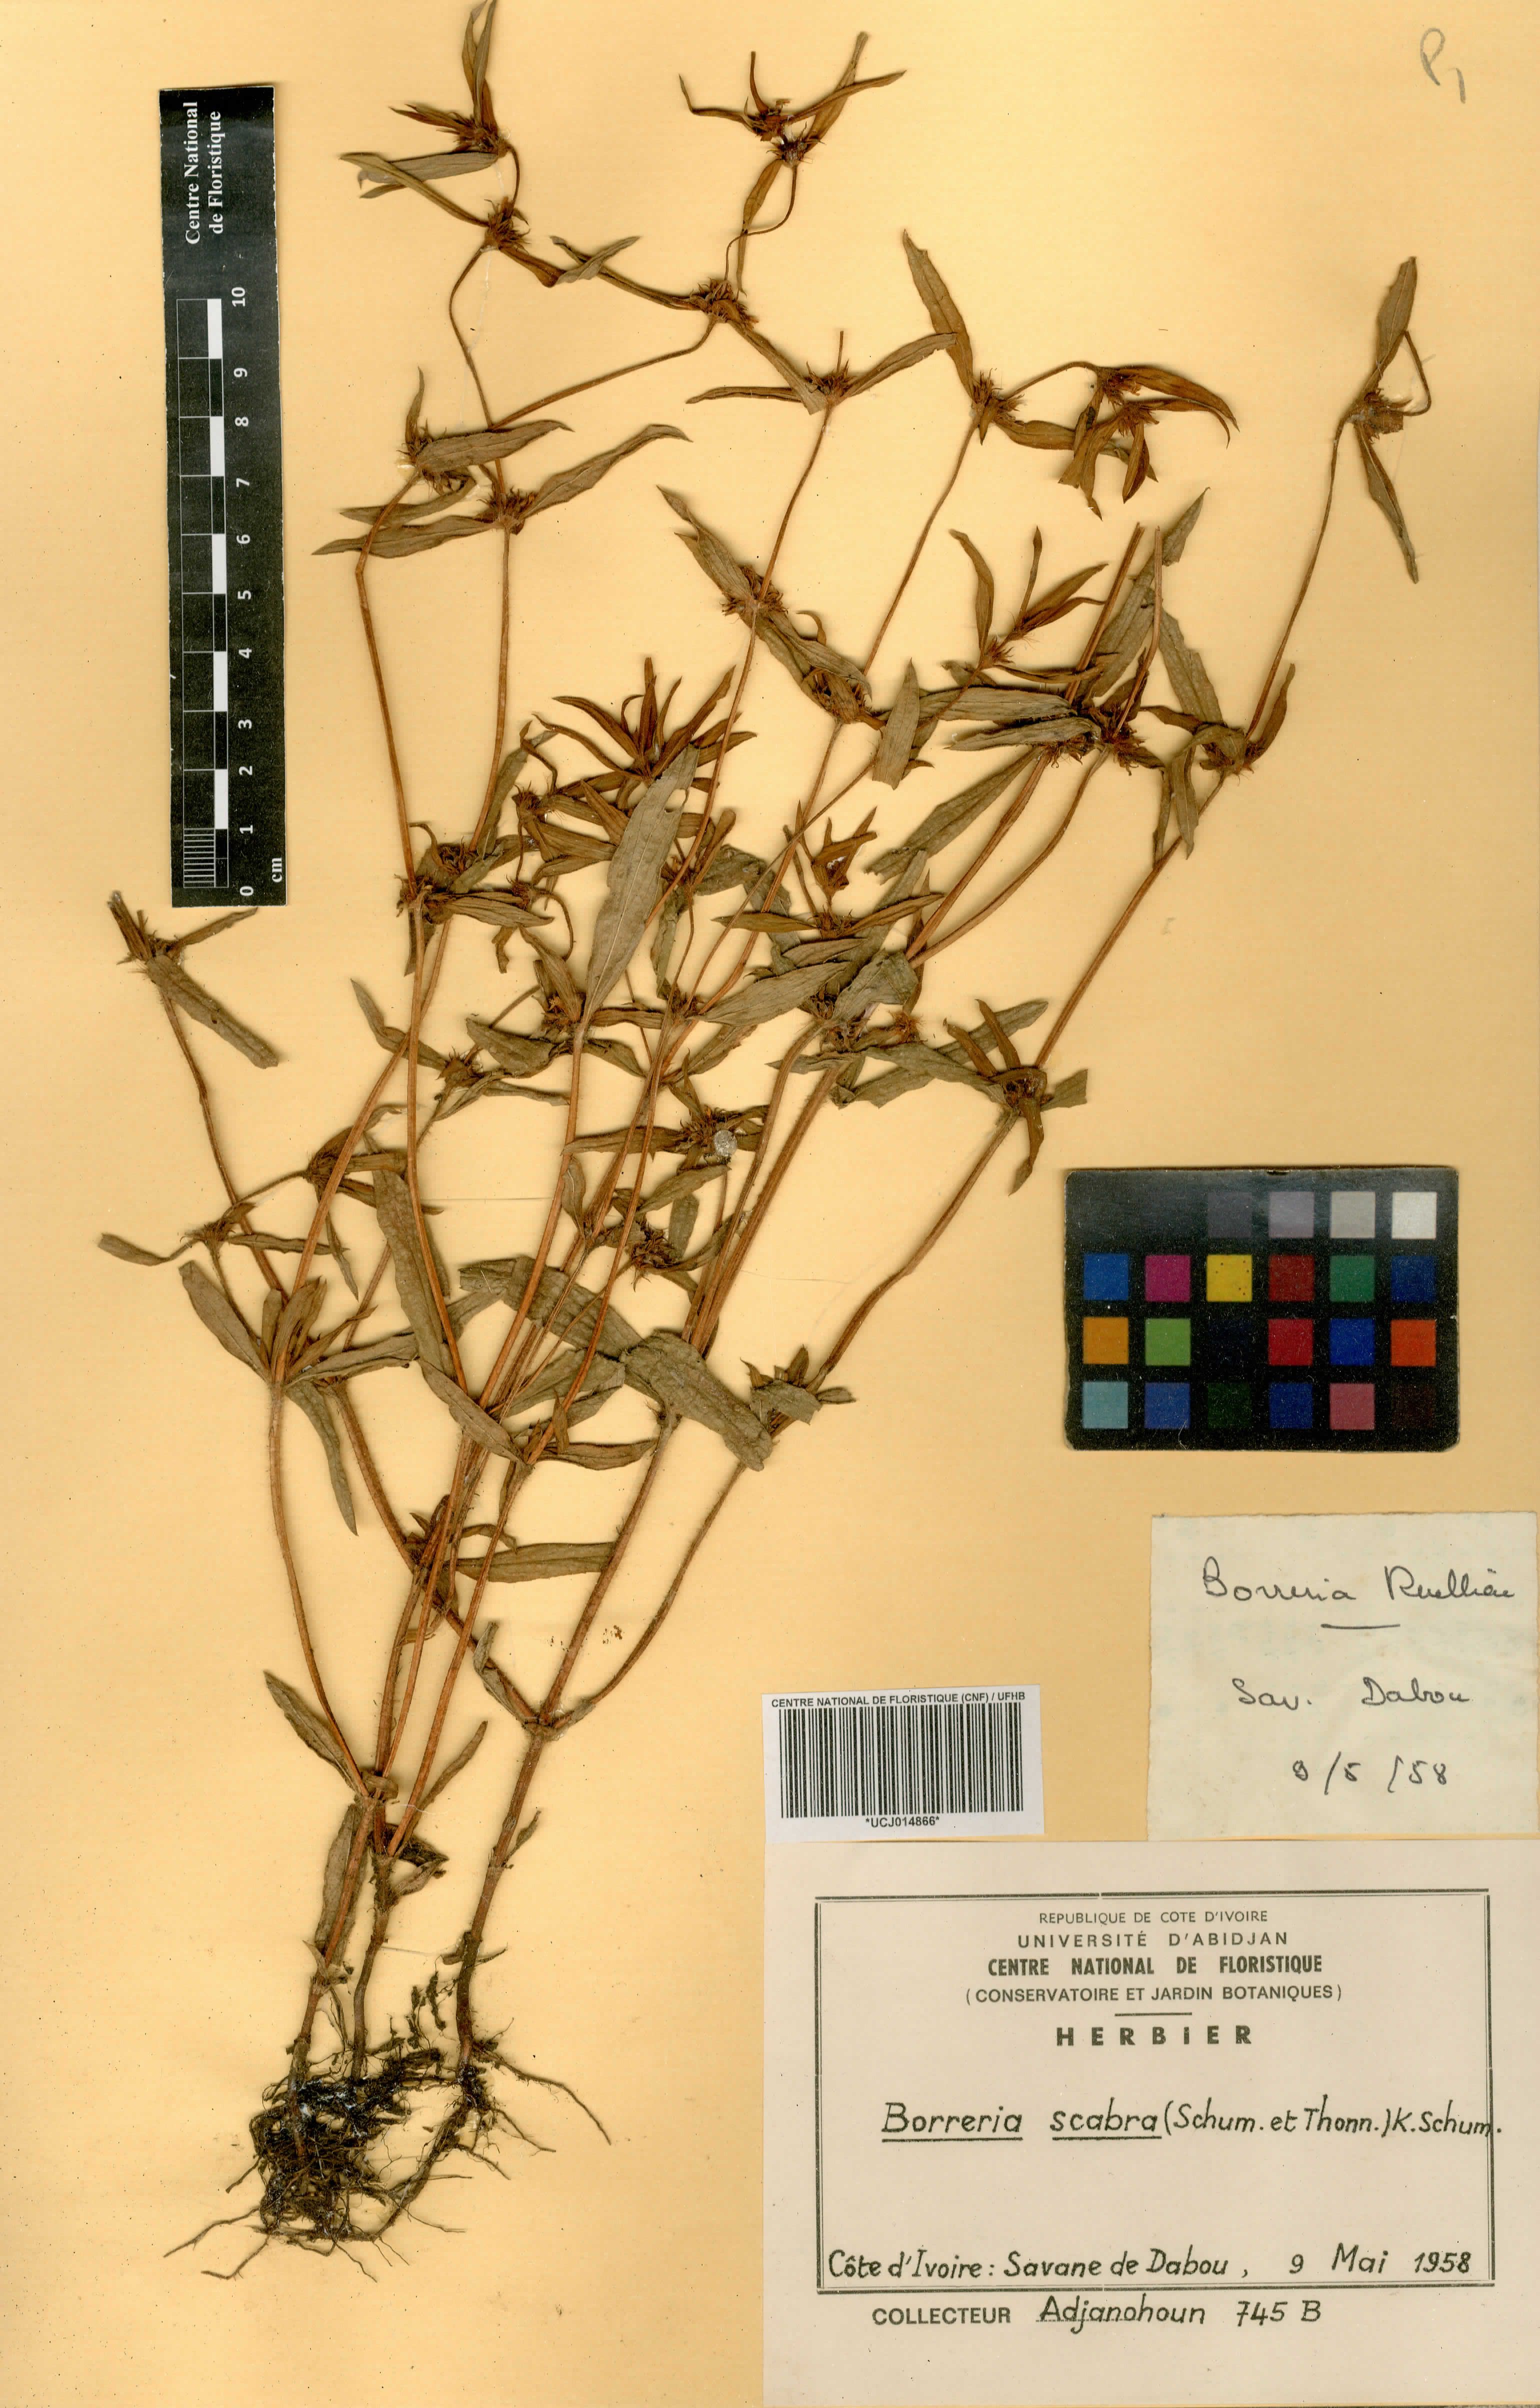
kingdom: Plantae
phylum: Tracheophyta
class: Magnoliopsida
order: Gentianales
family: Rubiaceae
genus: Spermacoce
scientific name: Spermacoce ruelliae
